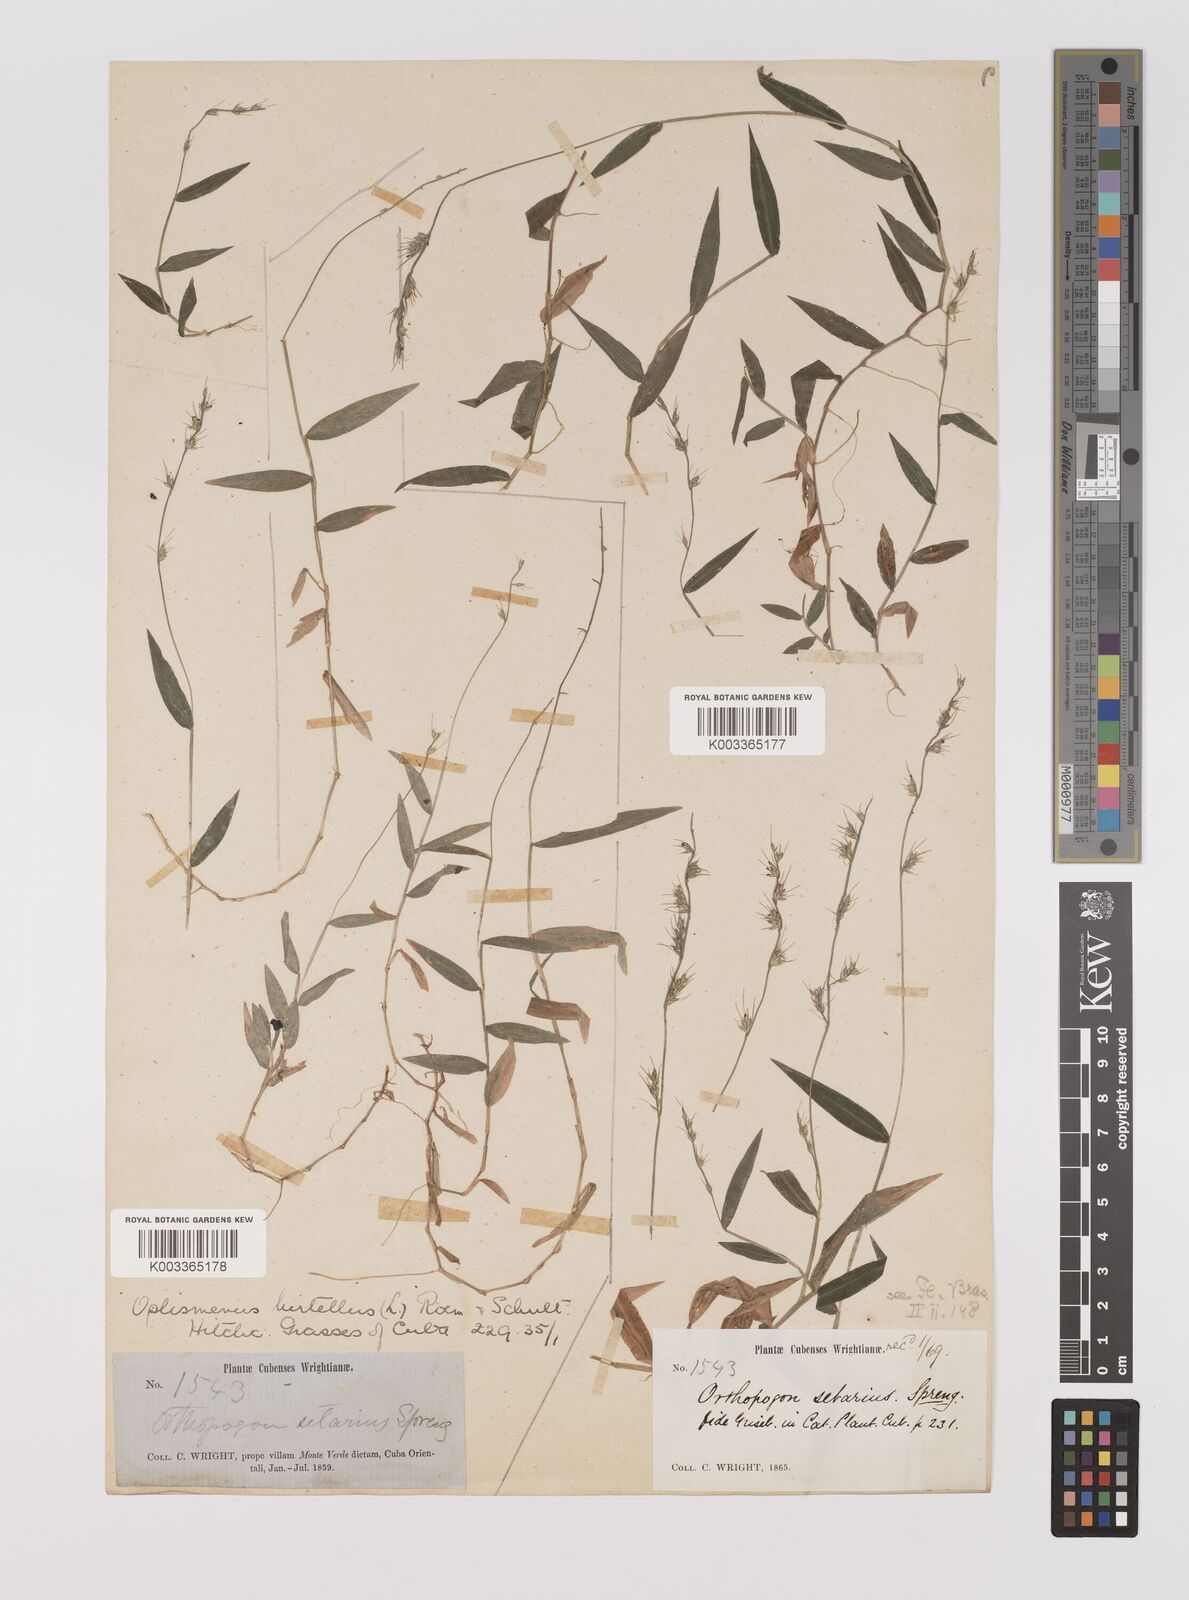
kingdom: Plantae
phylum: Tracheophyta
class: Liliopsida
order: Poales
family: Poaceae
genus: Oplismenus
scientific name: Oplismenus hirtellus
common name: Basketgrass
